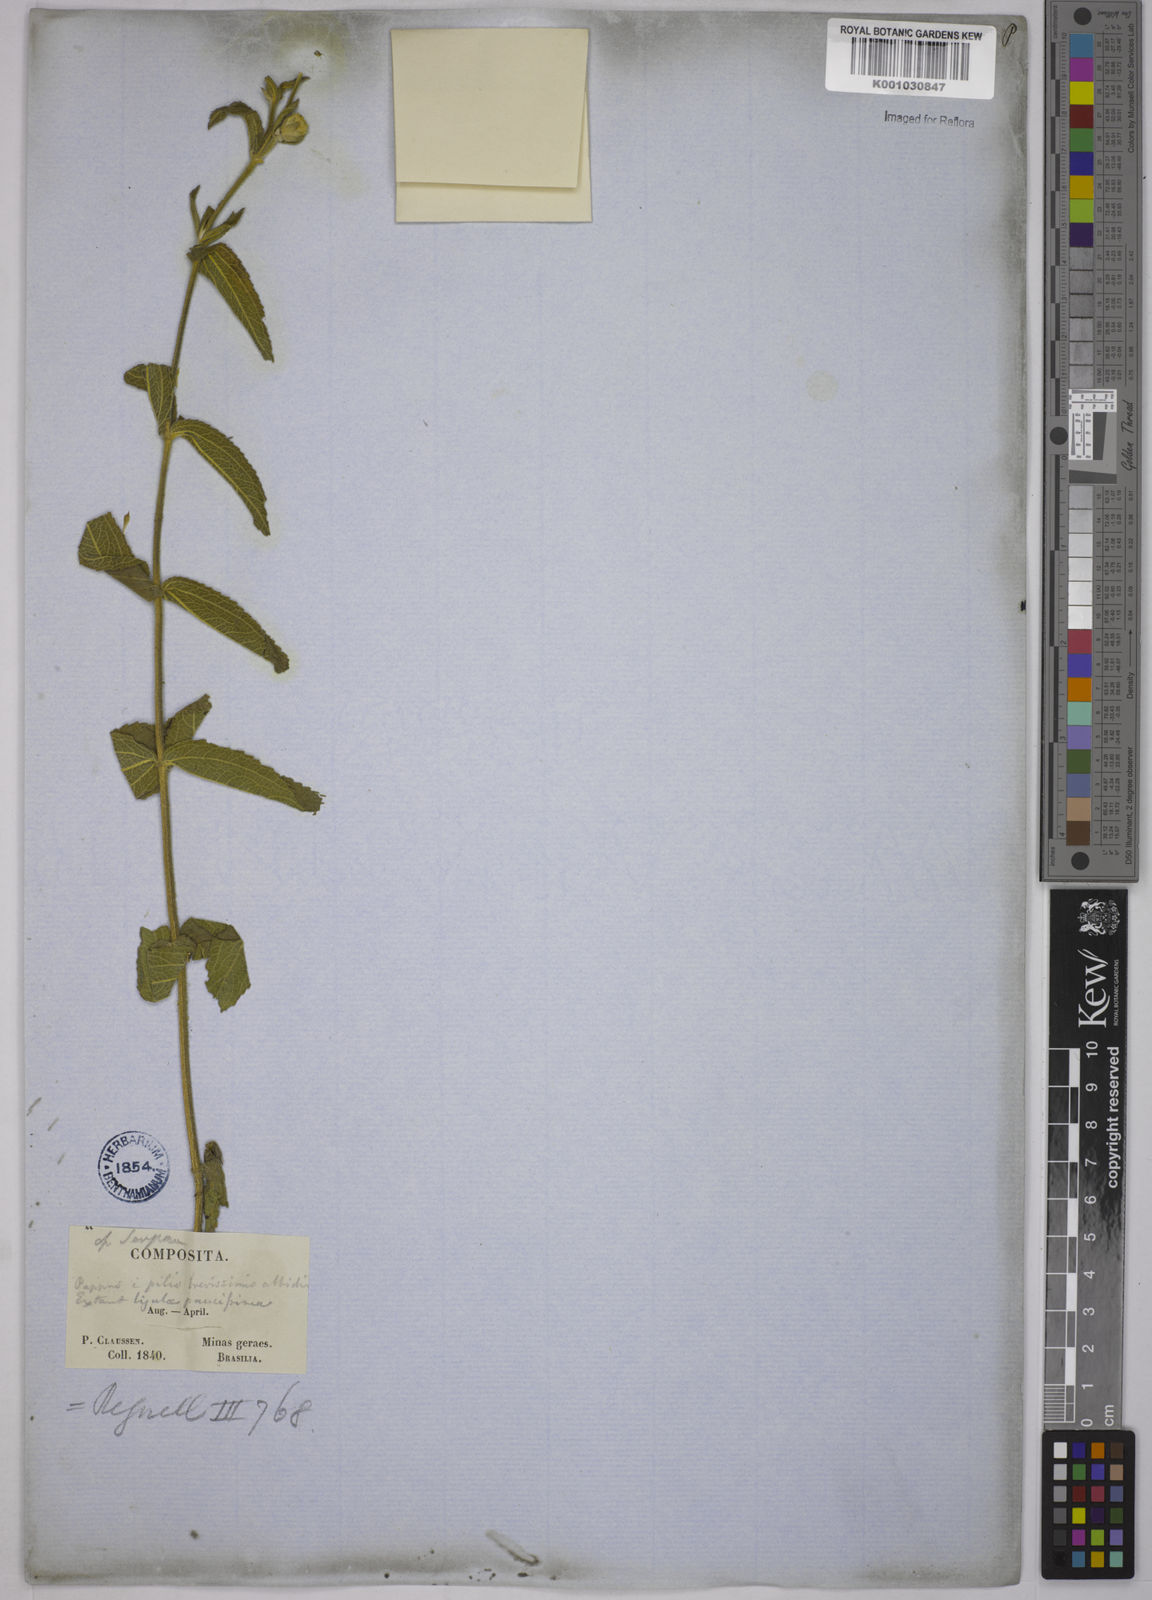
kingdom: Plantae
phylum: Tracheophyta
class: Magnoliopsida
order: Asterales
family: Asteraceae
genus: Wedelia
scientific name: Wedelia macrodonta
